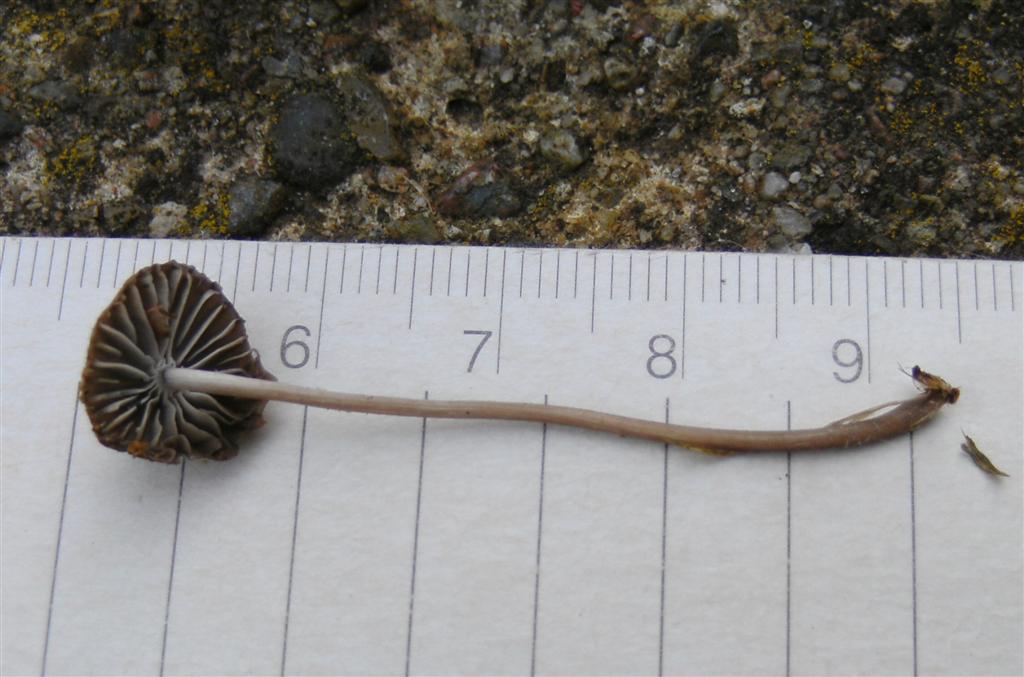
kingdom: Fungi
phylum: Basidiomycota
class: Agaricomycetes
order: Agaricales
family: Mycenaceae
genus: Mycena
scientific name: Mycena leptocephala
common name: klor-huesvamp
